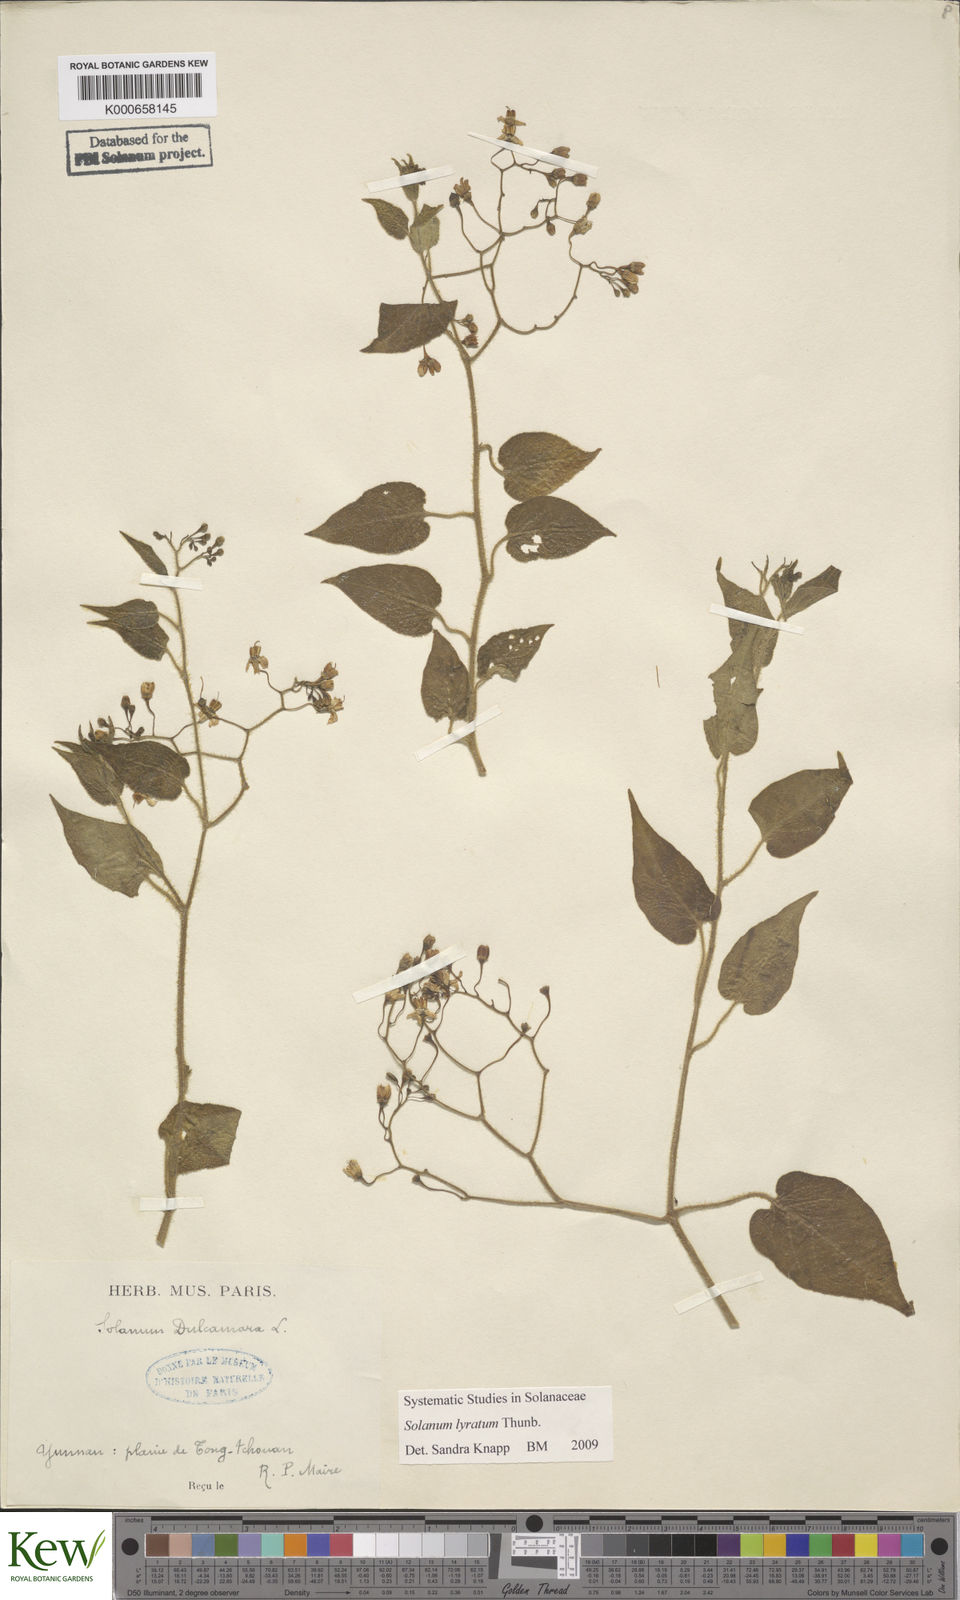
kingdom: Plantae
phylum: Tracheophyta
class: Magnoliopsida
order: Solanales
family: Solanaceae
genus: Solanum
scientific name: Solanum lyratum
